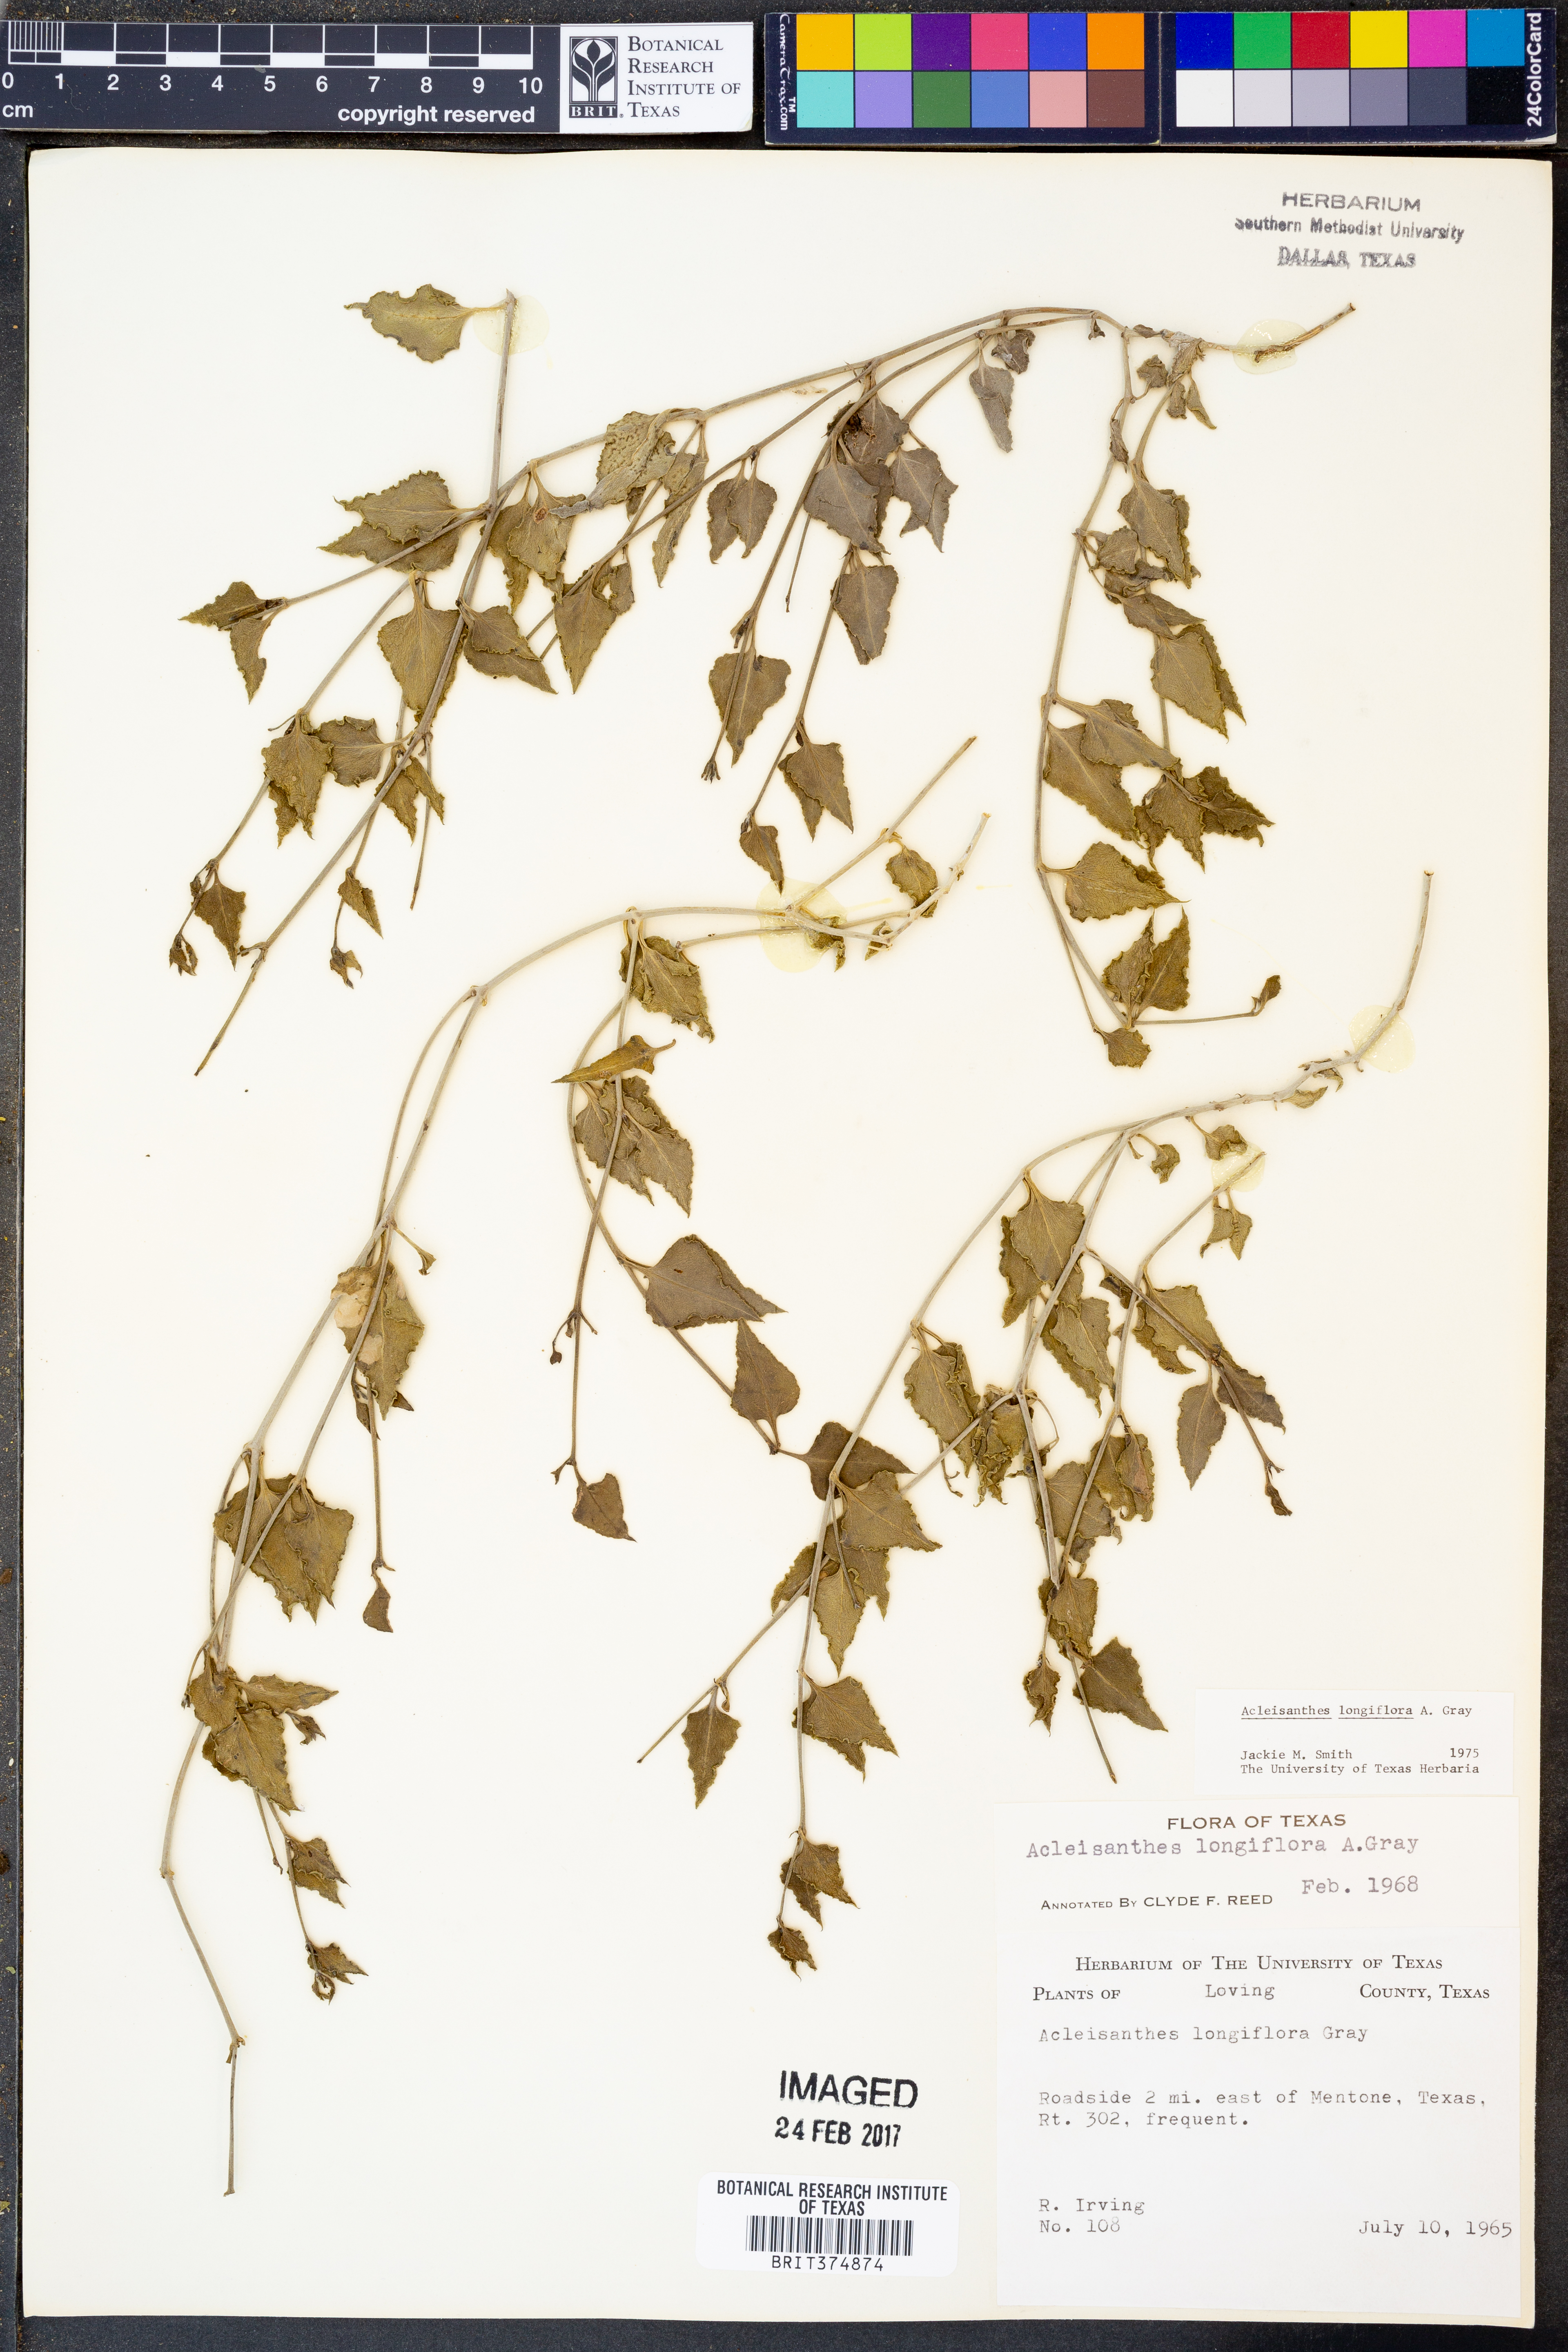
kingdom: Plantae
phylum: Tracheophyta
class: Magnoliopsida
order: Caryophyllales
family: Nyctaginaceae
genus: Acleisanthes
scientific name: Acleisanthes longiflora
